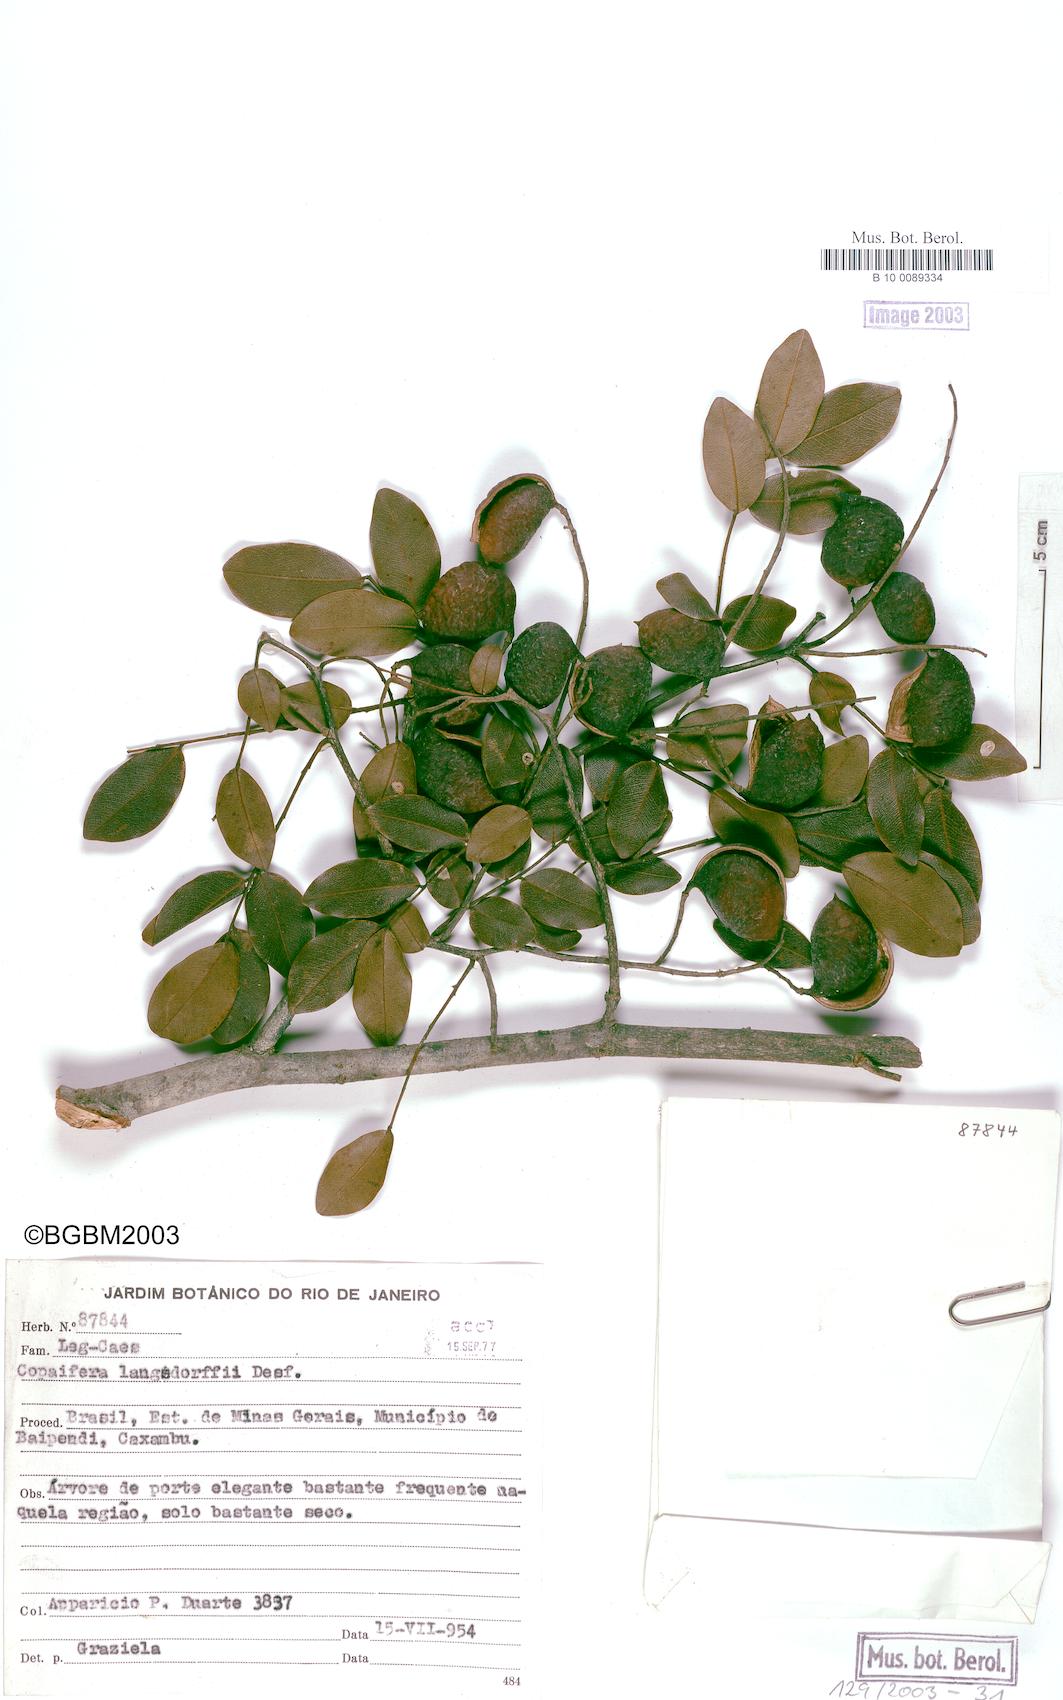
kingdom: Plantae
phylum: Tracheophyta
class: Magnoliopsida
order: Fabales
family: Fabaceae
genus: Copaifera
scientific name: Copaifera langsdorffii
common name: Brazilian diesel tree
